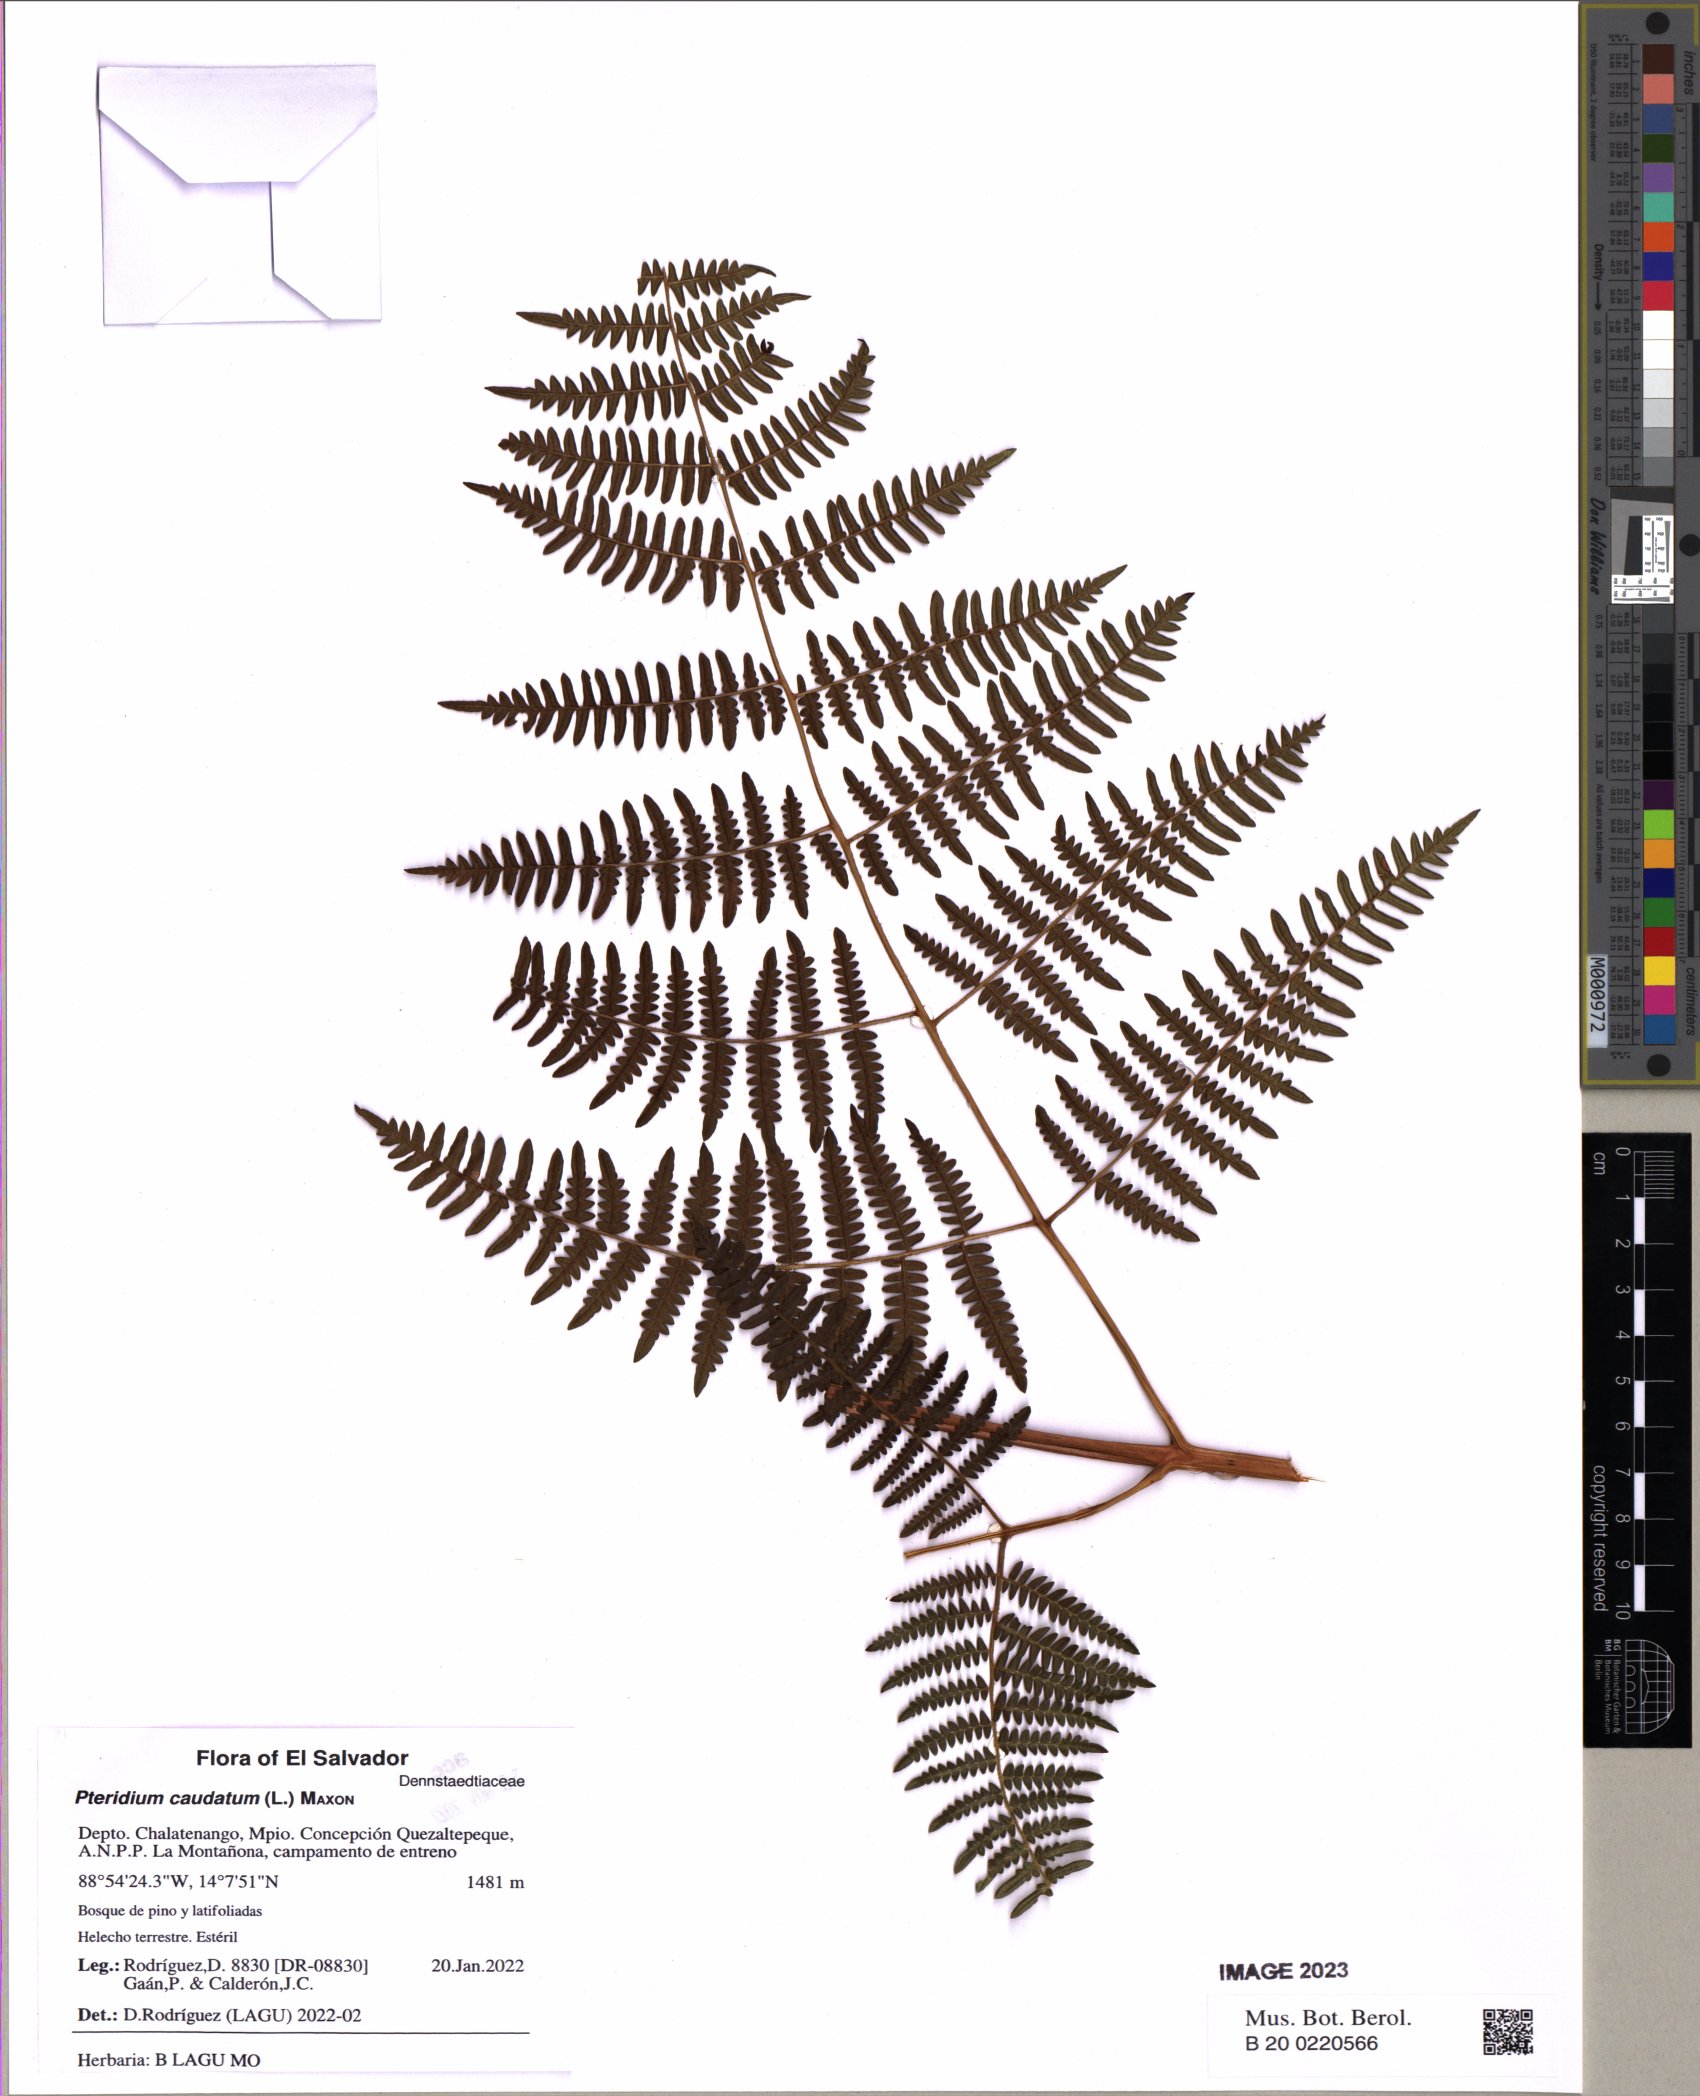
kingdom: Plantae
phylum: Tracheophyta
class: Polypodiopsida
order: Polypodiales
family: Dennstaedtiaceae
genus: Pteridium
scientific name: Pteridium caudatum
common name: Southern bracken fern
